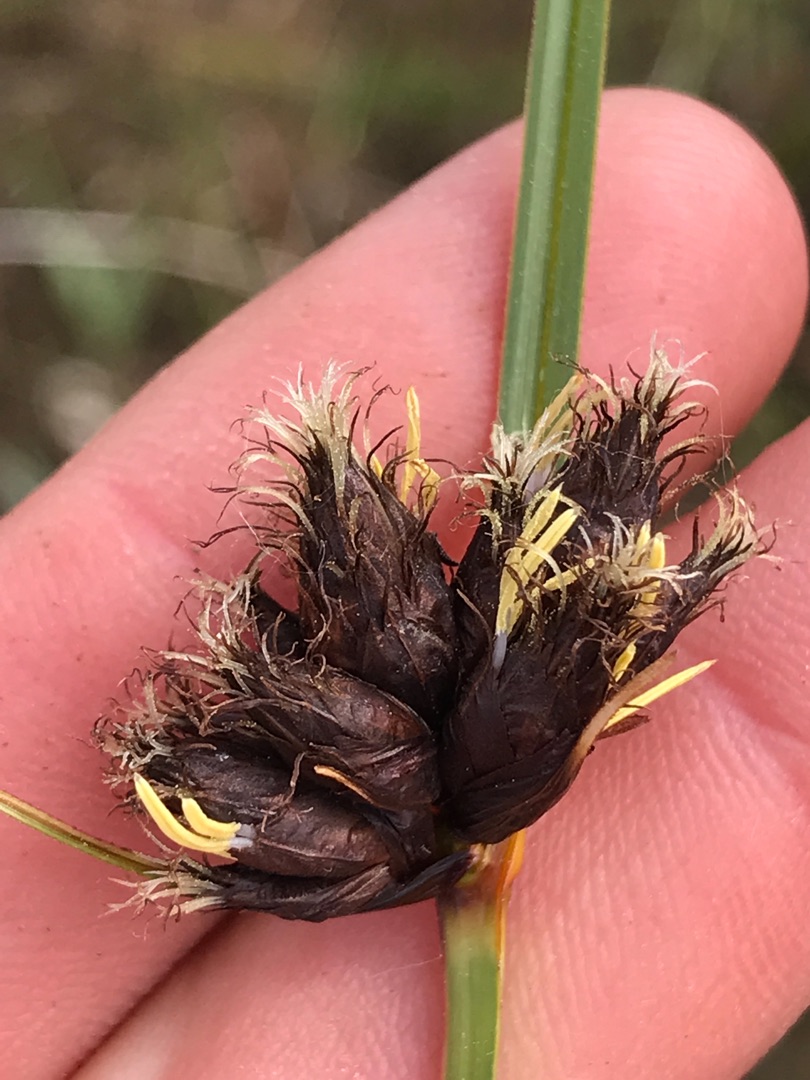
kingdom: Plantae
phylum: Tracheophyta
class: Liliopsida
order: Poales
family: Cyperaceae
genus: Bolboschoenus
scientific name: Bolboschoenus maritimus
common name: Strand-kogleaks
